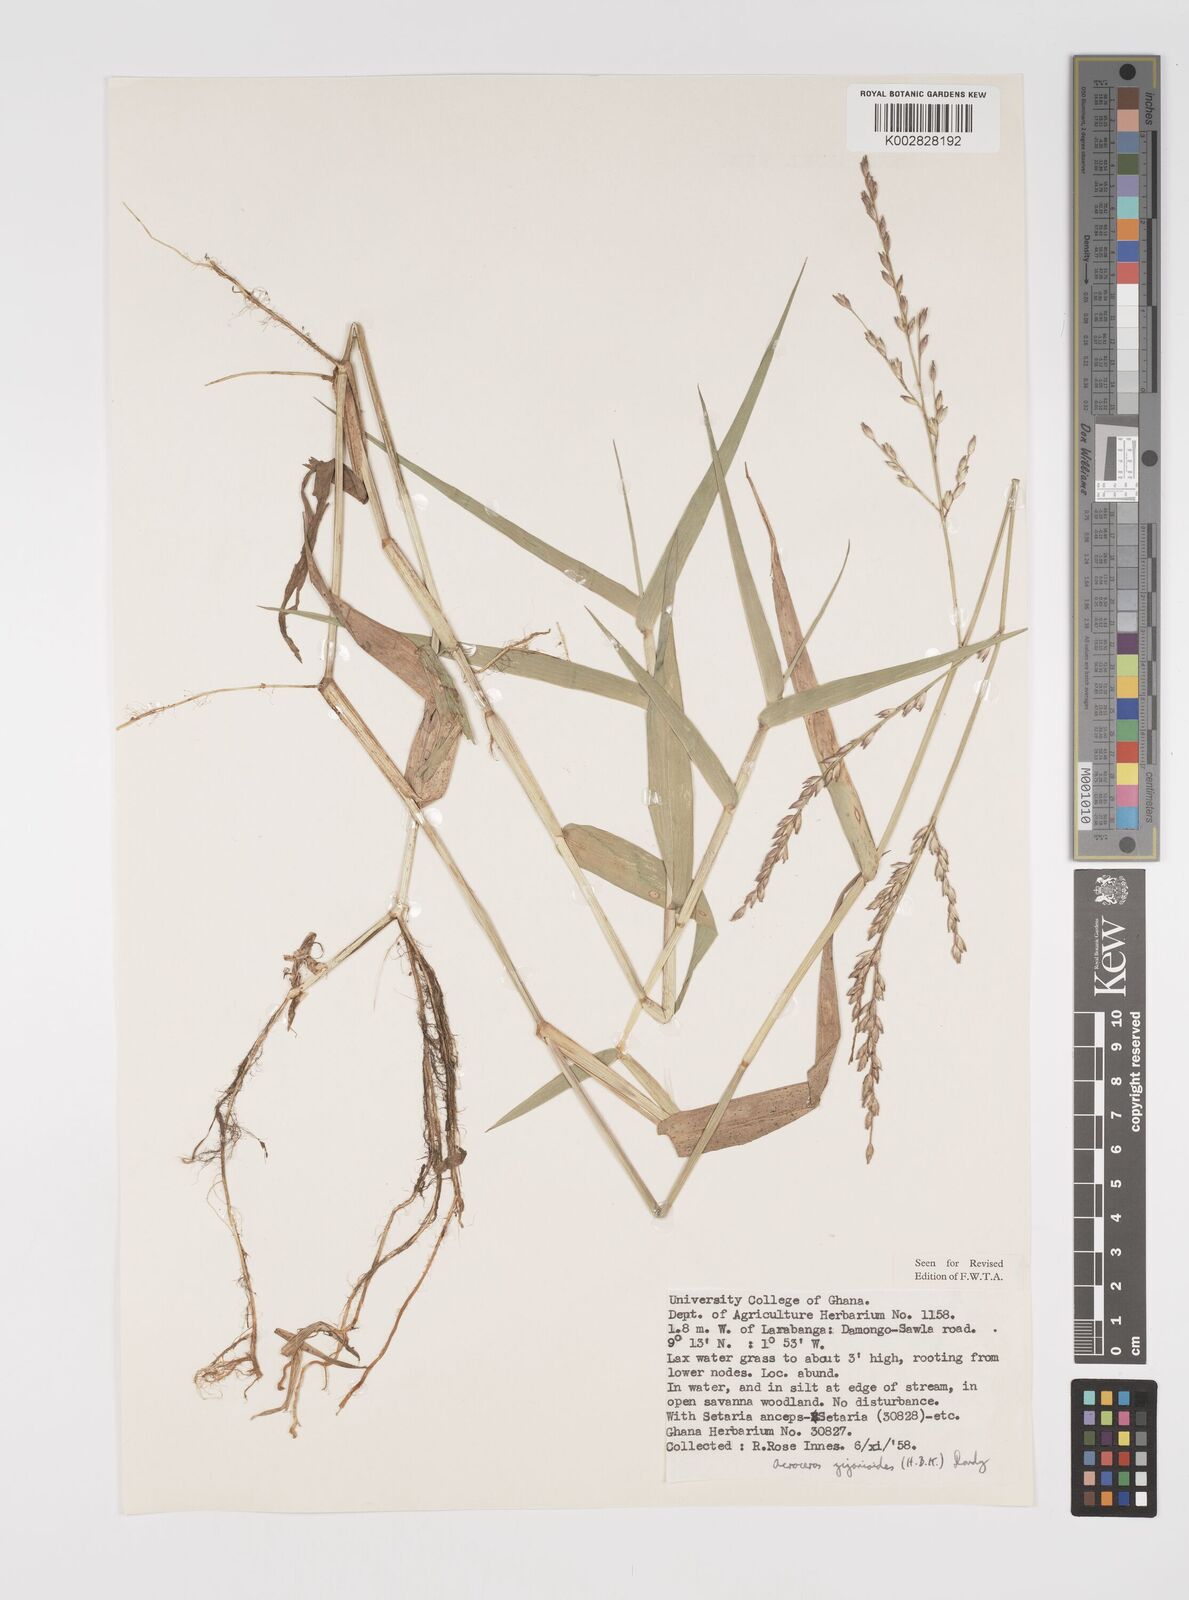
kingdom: Plantae
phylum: Tracheophyta
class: Liliopsida
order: Poales
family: Poaceae
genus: Acroceras
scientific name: Acroceras zizanioides
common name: Oat grass
